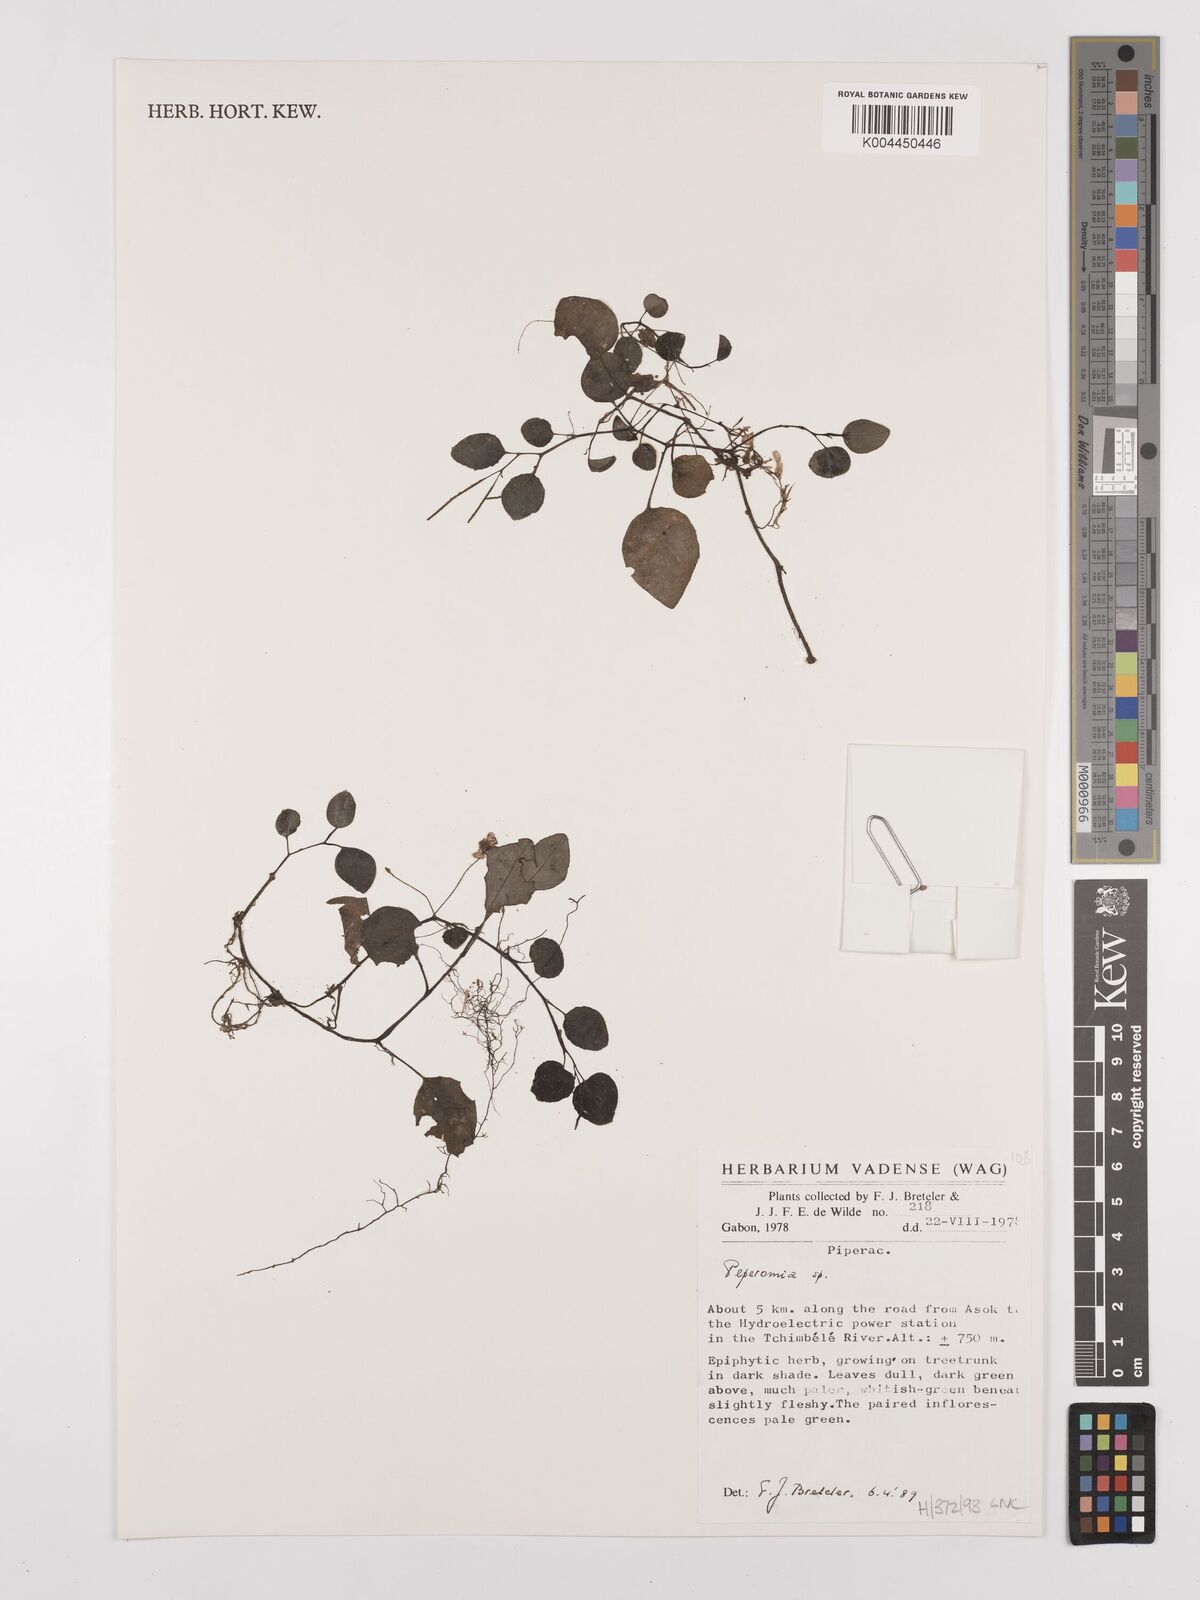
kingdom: Plantae
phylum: Tracheophyta
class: Magnoliopsida
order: Piperales
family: Piperaceae
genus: Peperomia
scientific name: Peperomia
